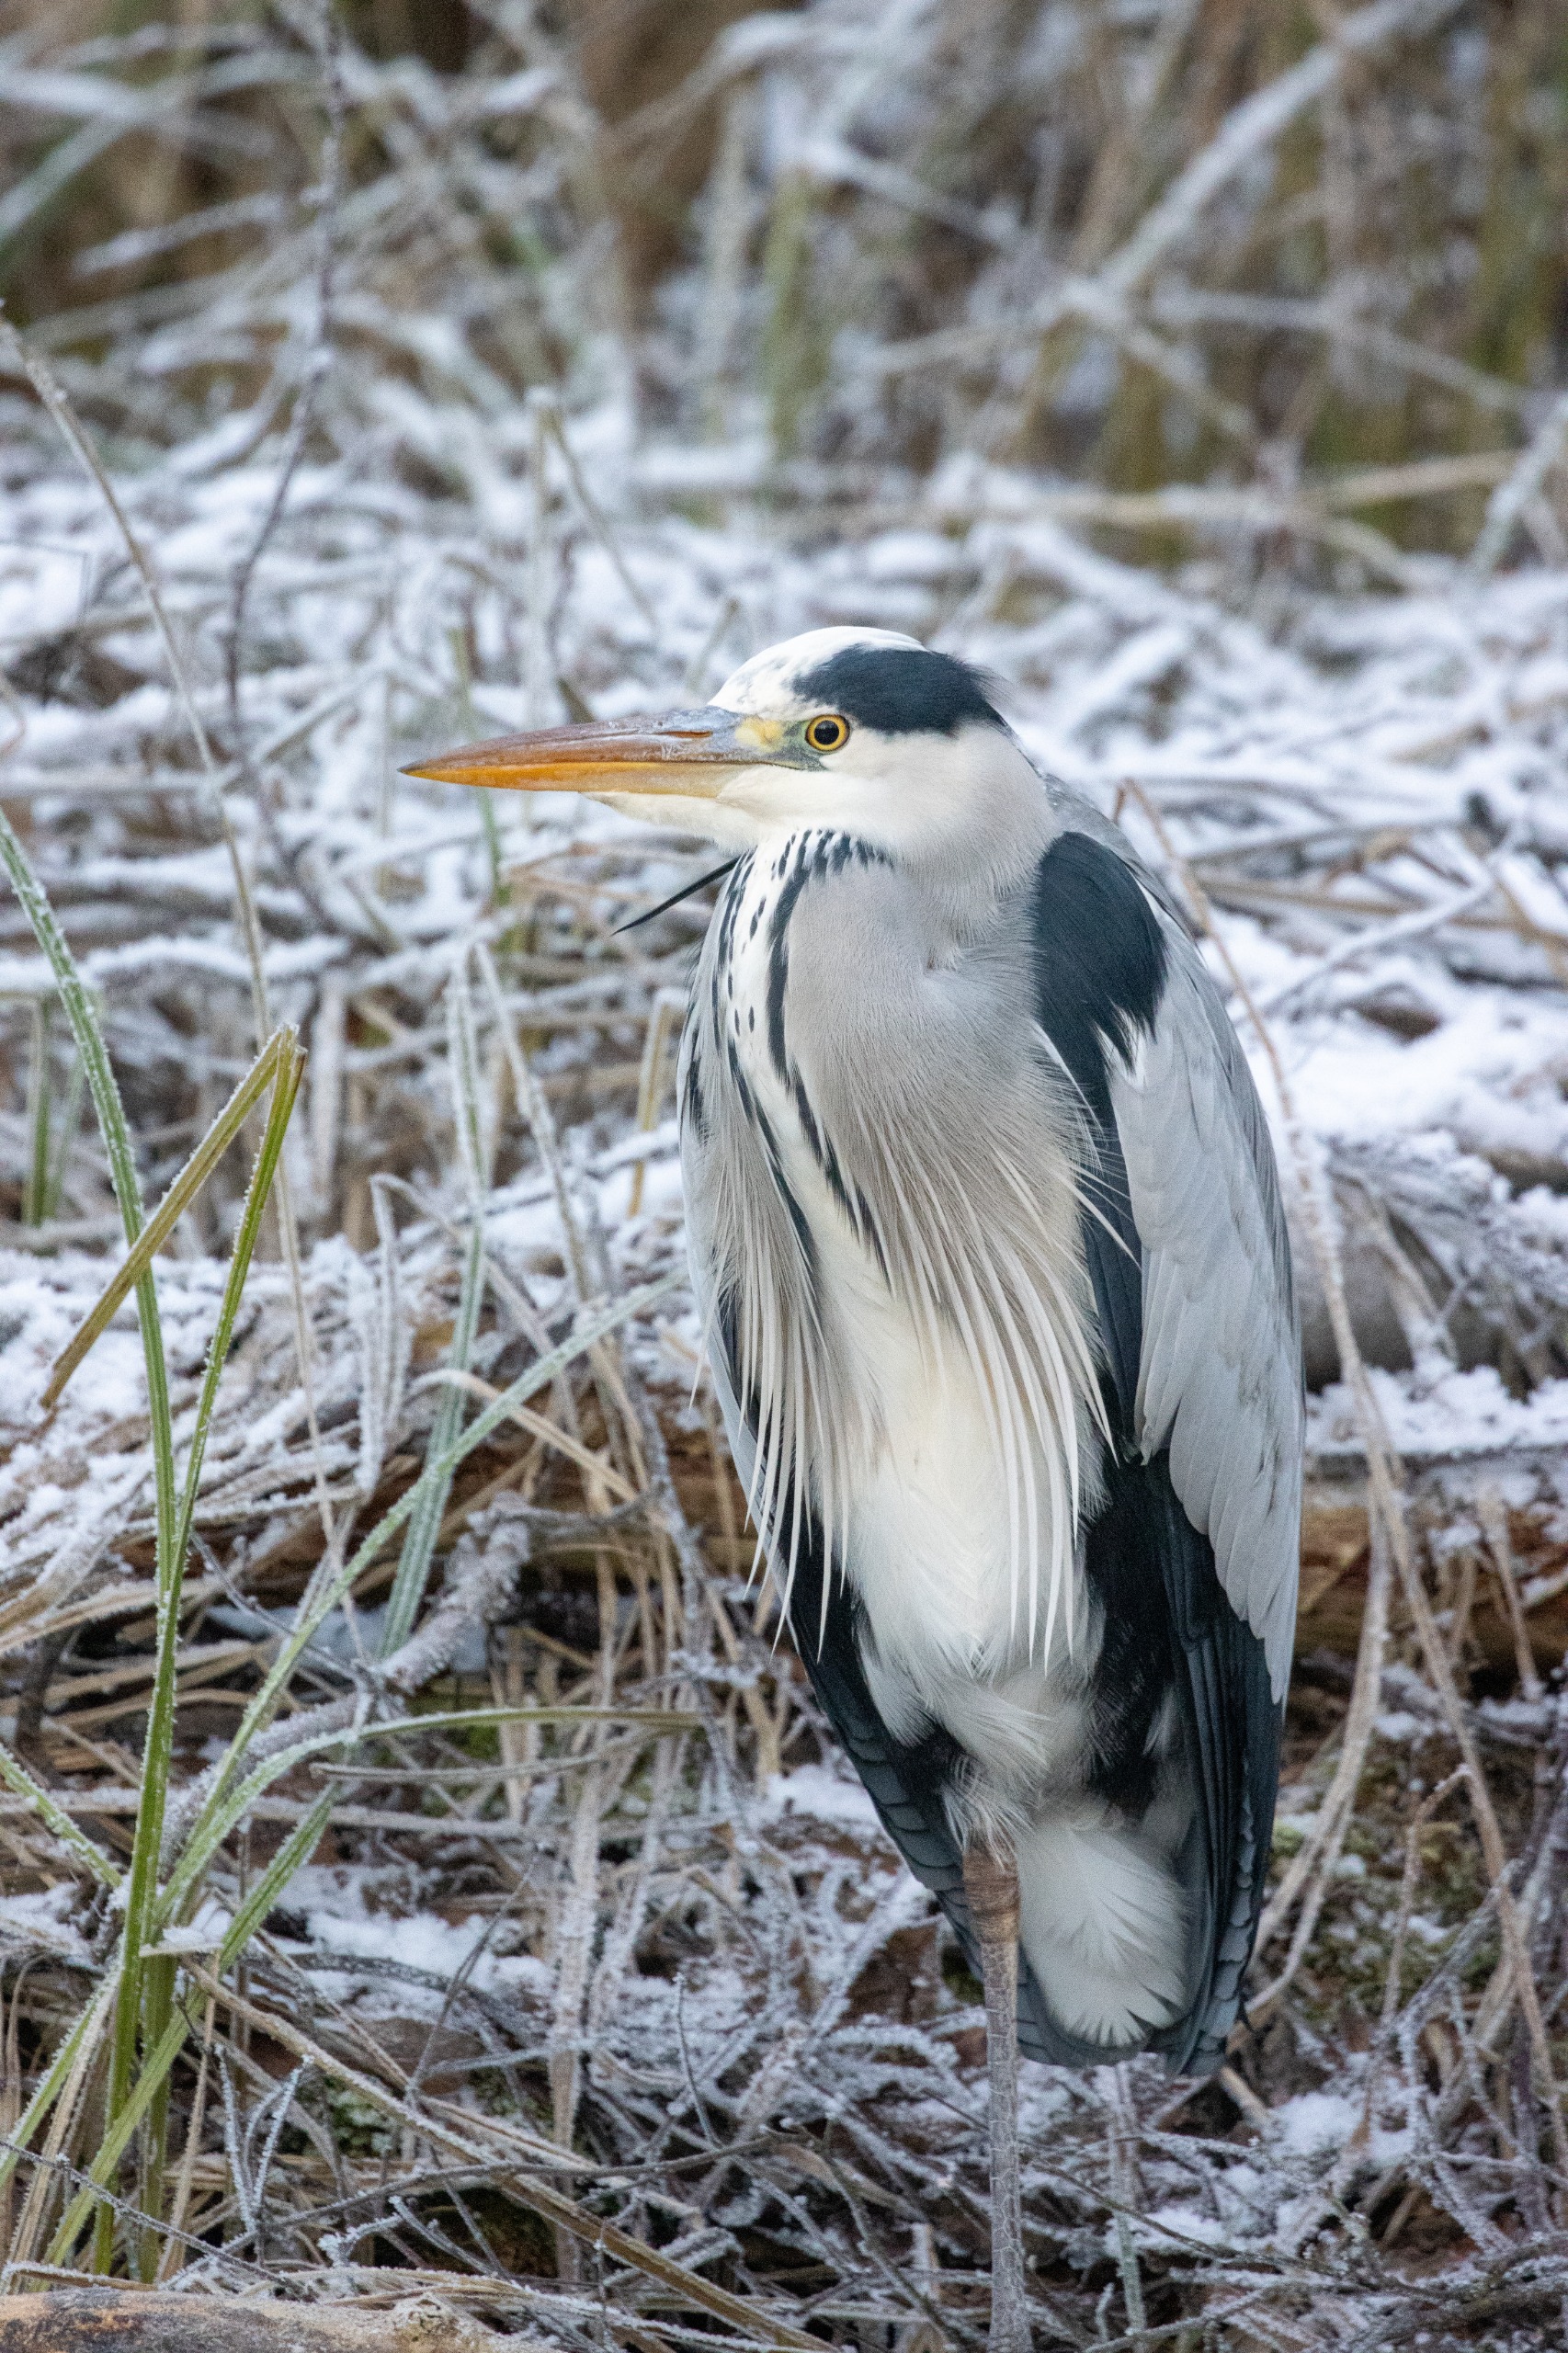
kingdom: Animalia
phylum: Chordata
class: Aves
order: Pelecaniformes
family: Ardeidae
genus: Ardea
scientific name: Ardea cinerea
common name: Fiskehejre
